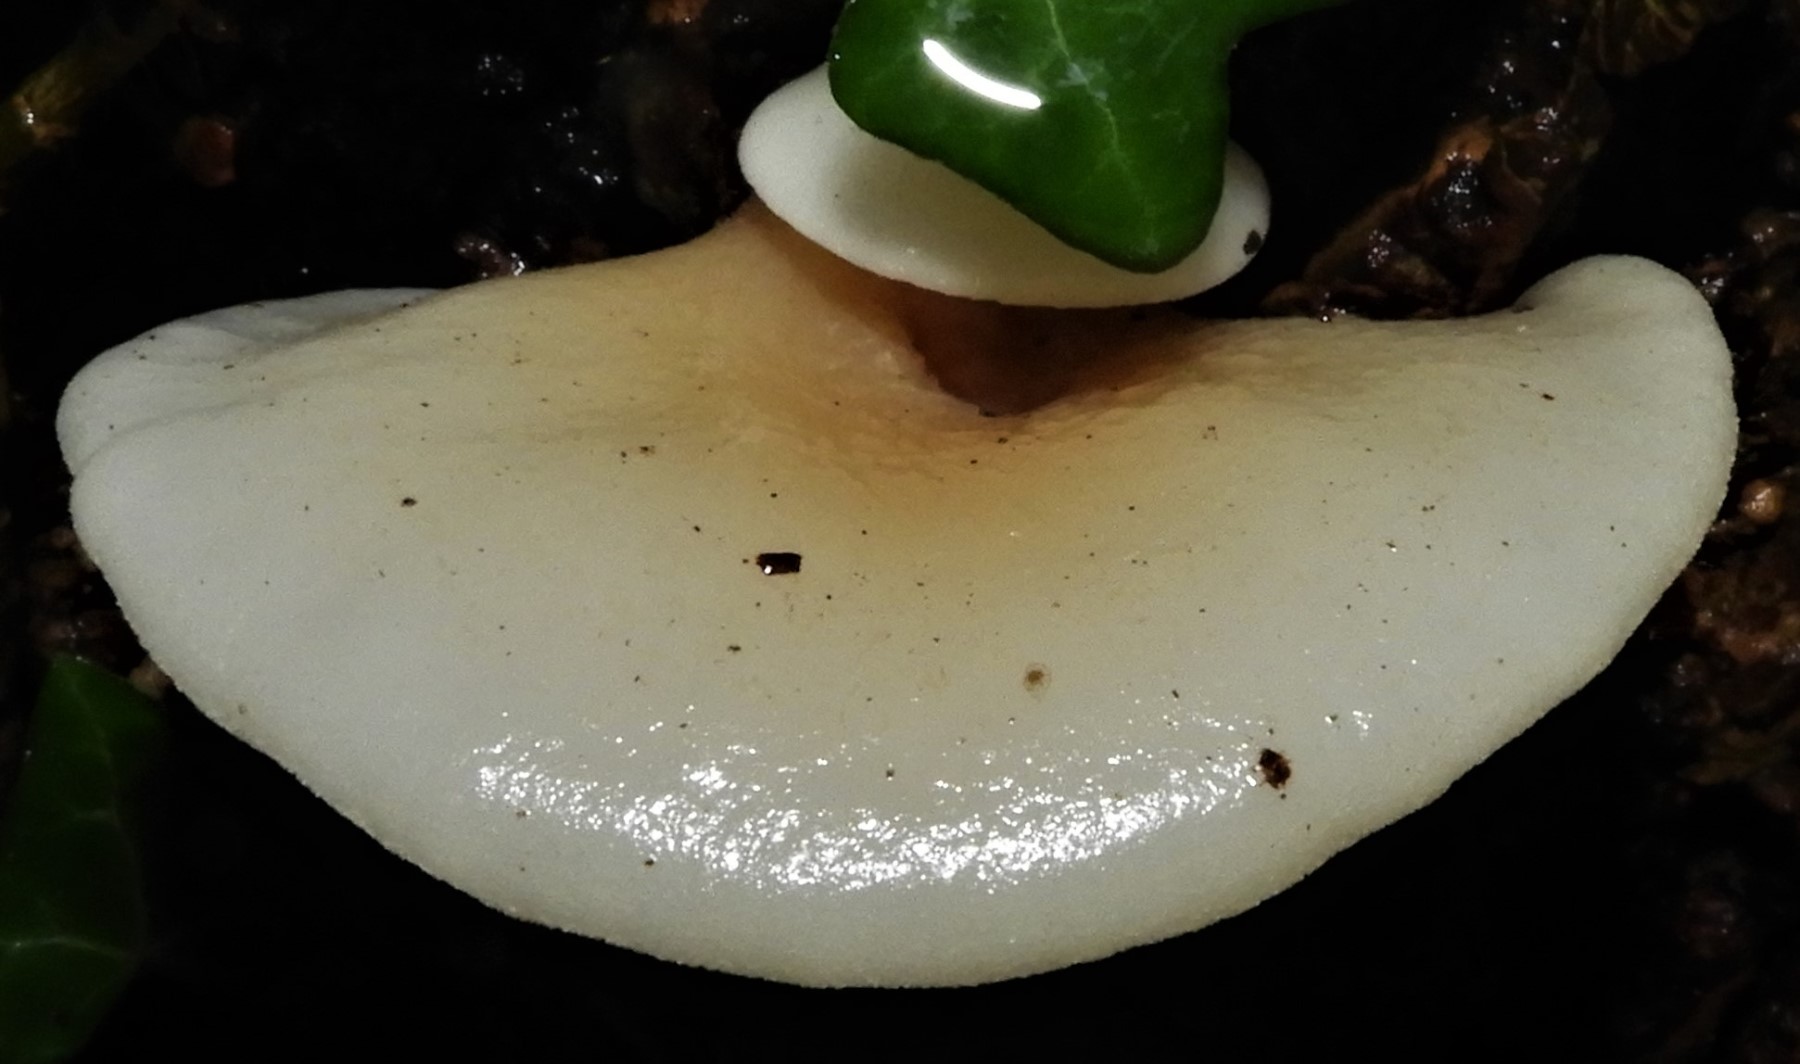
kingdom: Fungi
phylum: Basidiomycota
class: Agaricomycetes
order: Agaricales
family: Crepidotaceae
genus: Crepidotus
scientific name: Crepidotus mollis
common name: blød muslingesvamp
